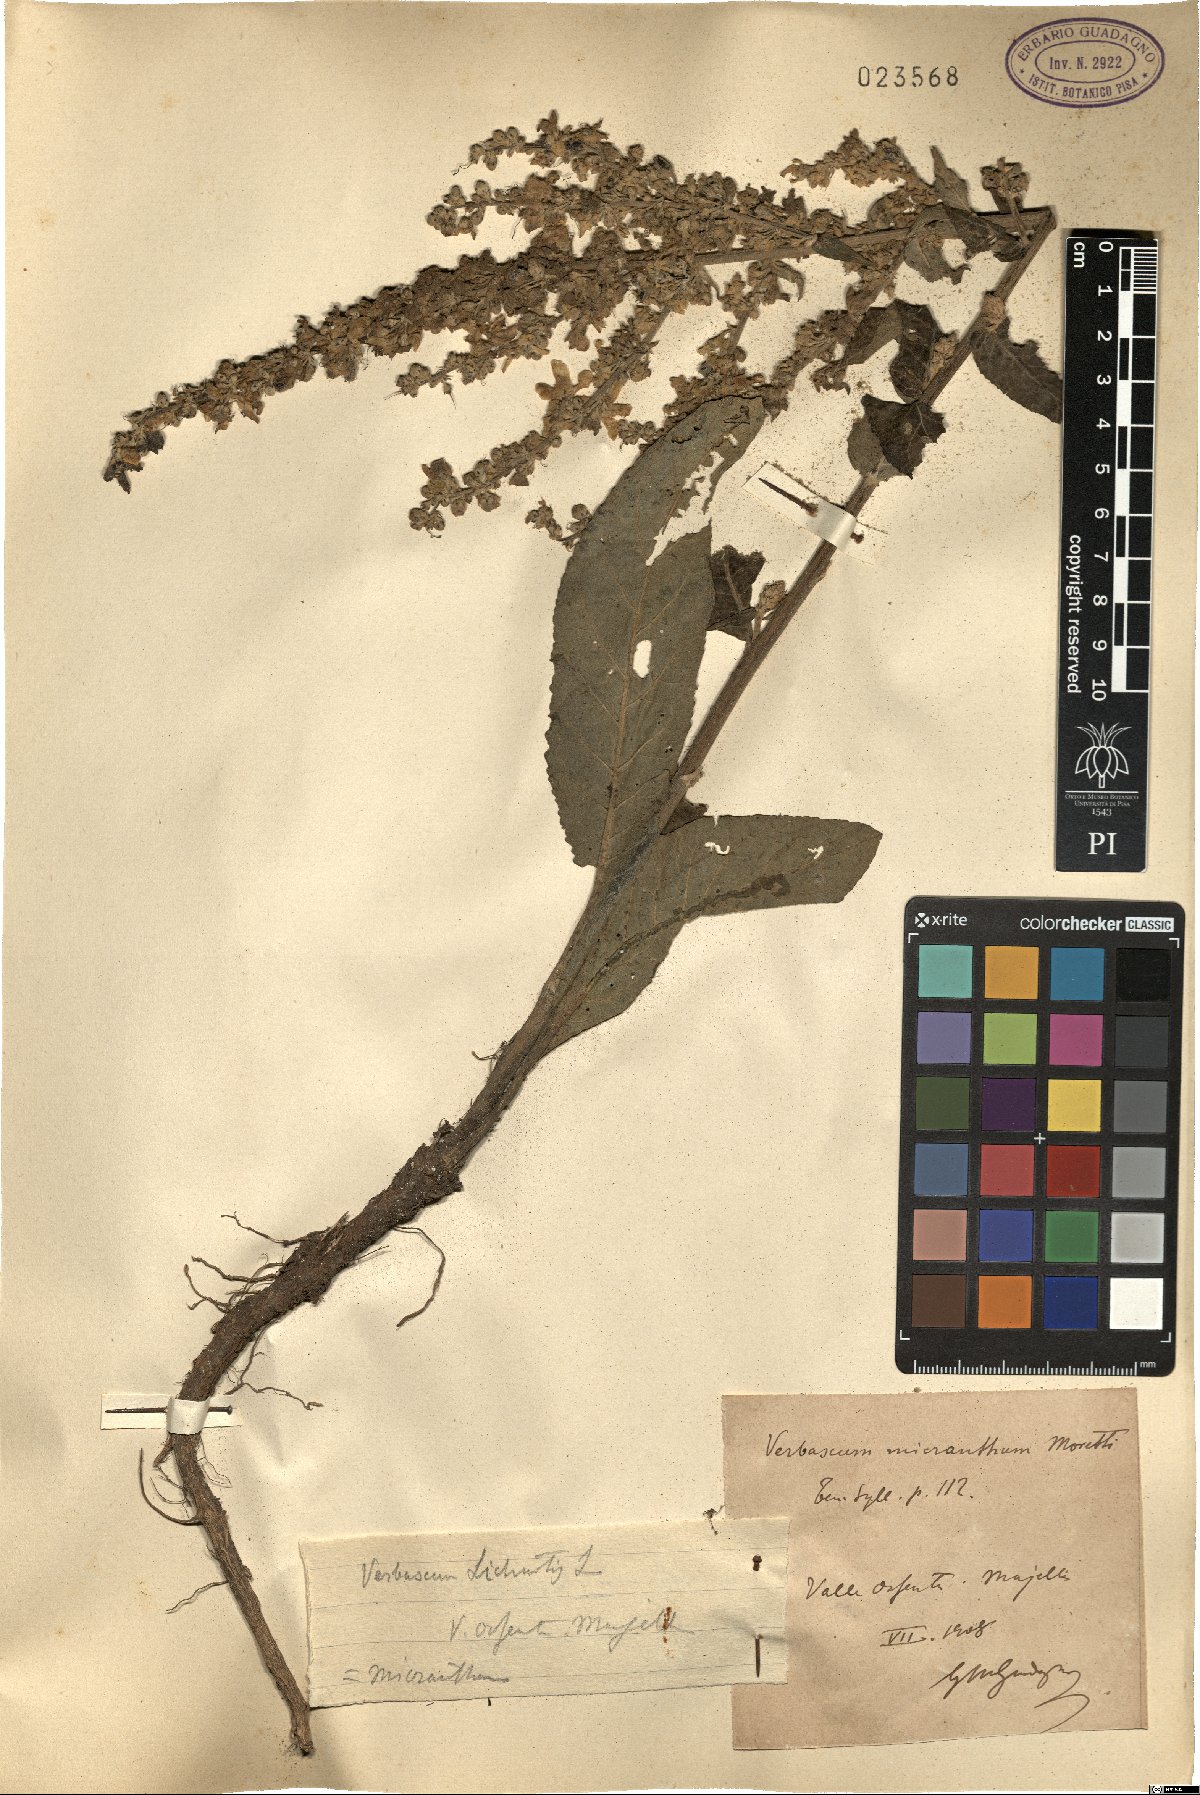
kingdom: Plantae
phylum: Tracheophyta
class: Magnoliopsida
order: Lamiales
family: Scrophulariaceae
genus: Verbascum
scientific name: Verbascum lychnitis
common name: White mullein
